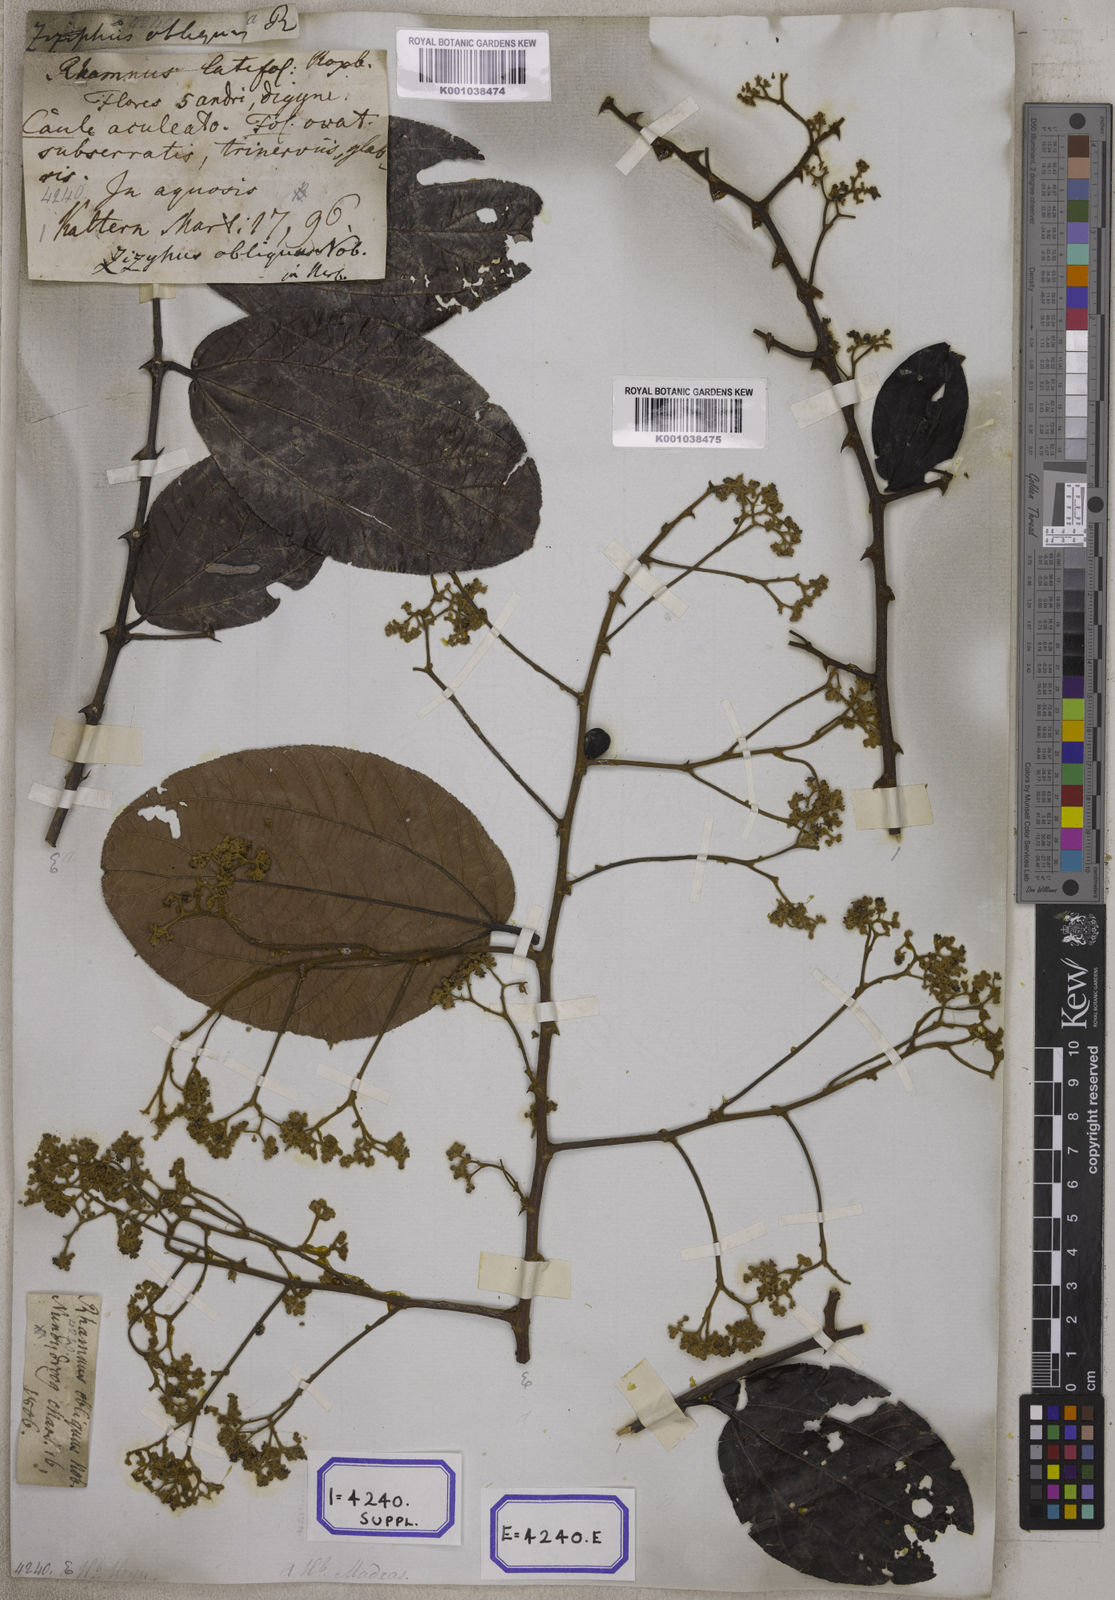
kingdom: Plantae
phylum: Tracheophyta
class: Magnoliopsida
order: Rosales
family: Rhamnaceae
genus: Ziziphus
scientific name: Ziziphus rugosa
